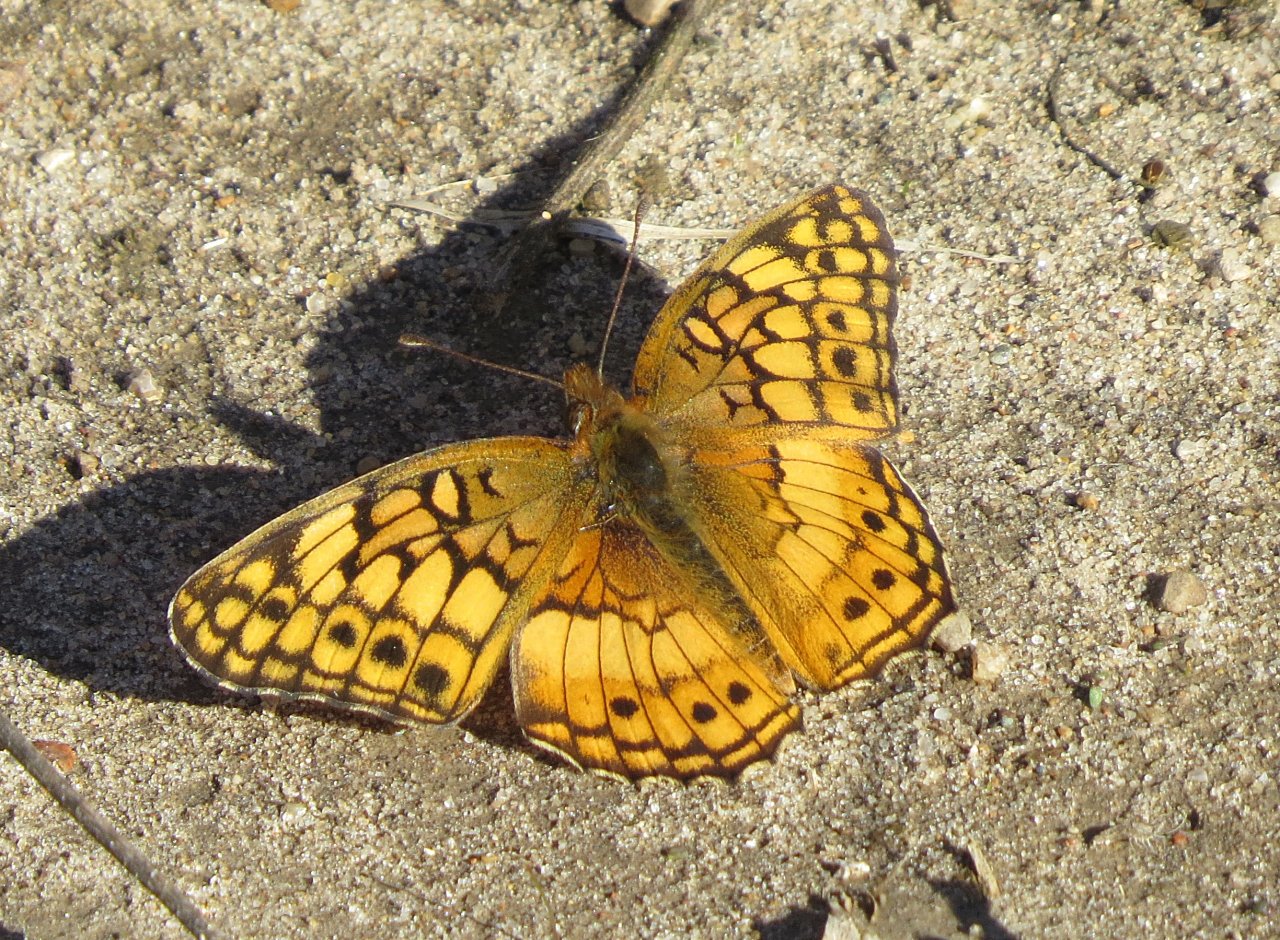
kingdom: Animalia
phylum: Arthropoda
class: Insecta
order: Lepidoptera
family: Nymphalidae
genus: Euptoieta
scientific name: Euptoieta claudia
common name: Variegated Fritillary
